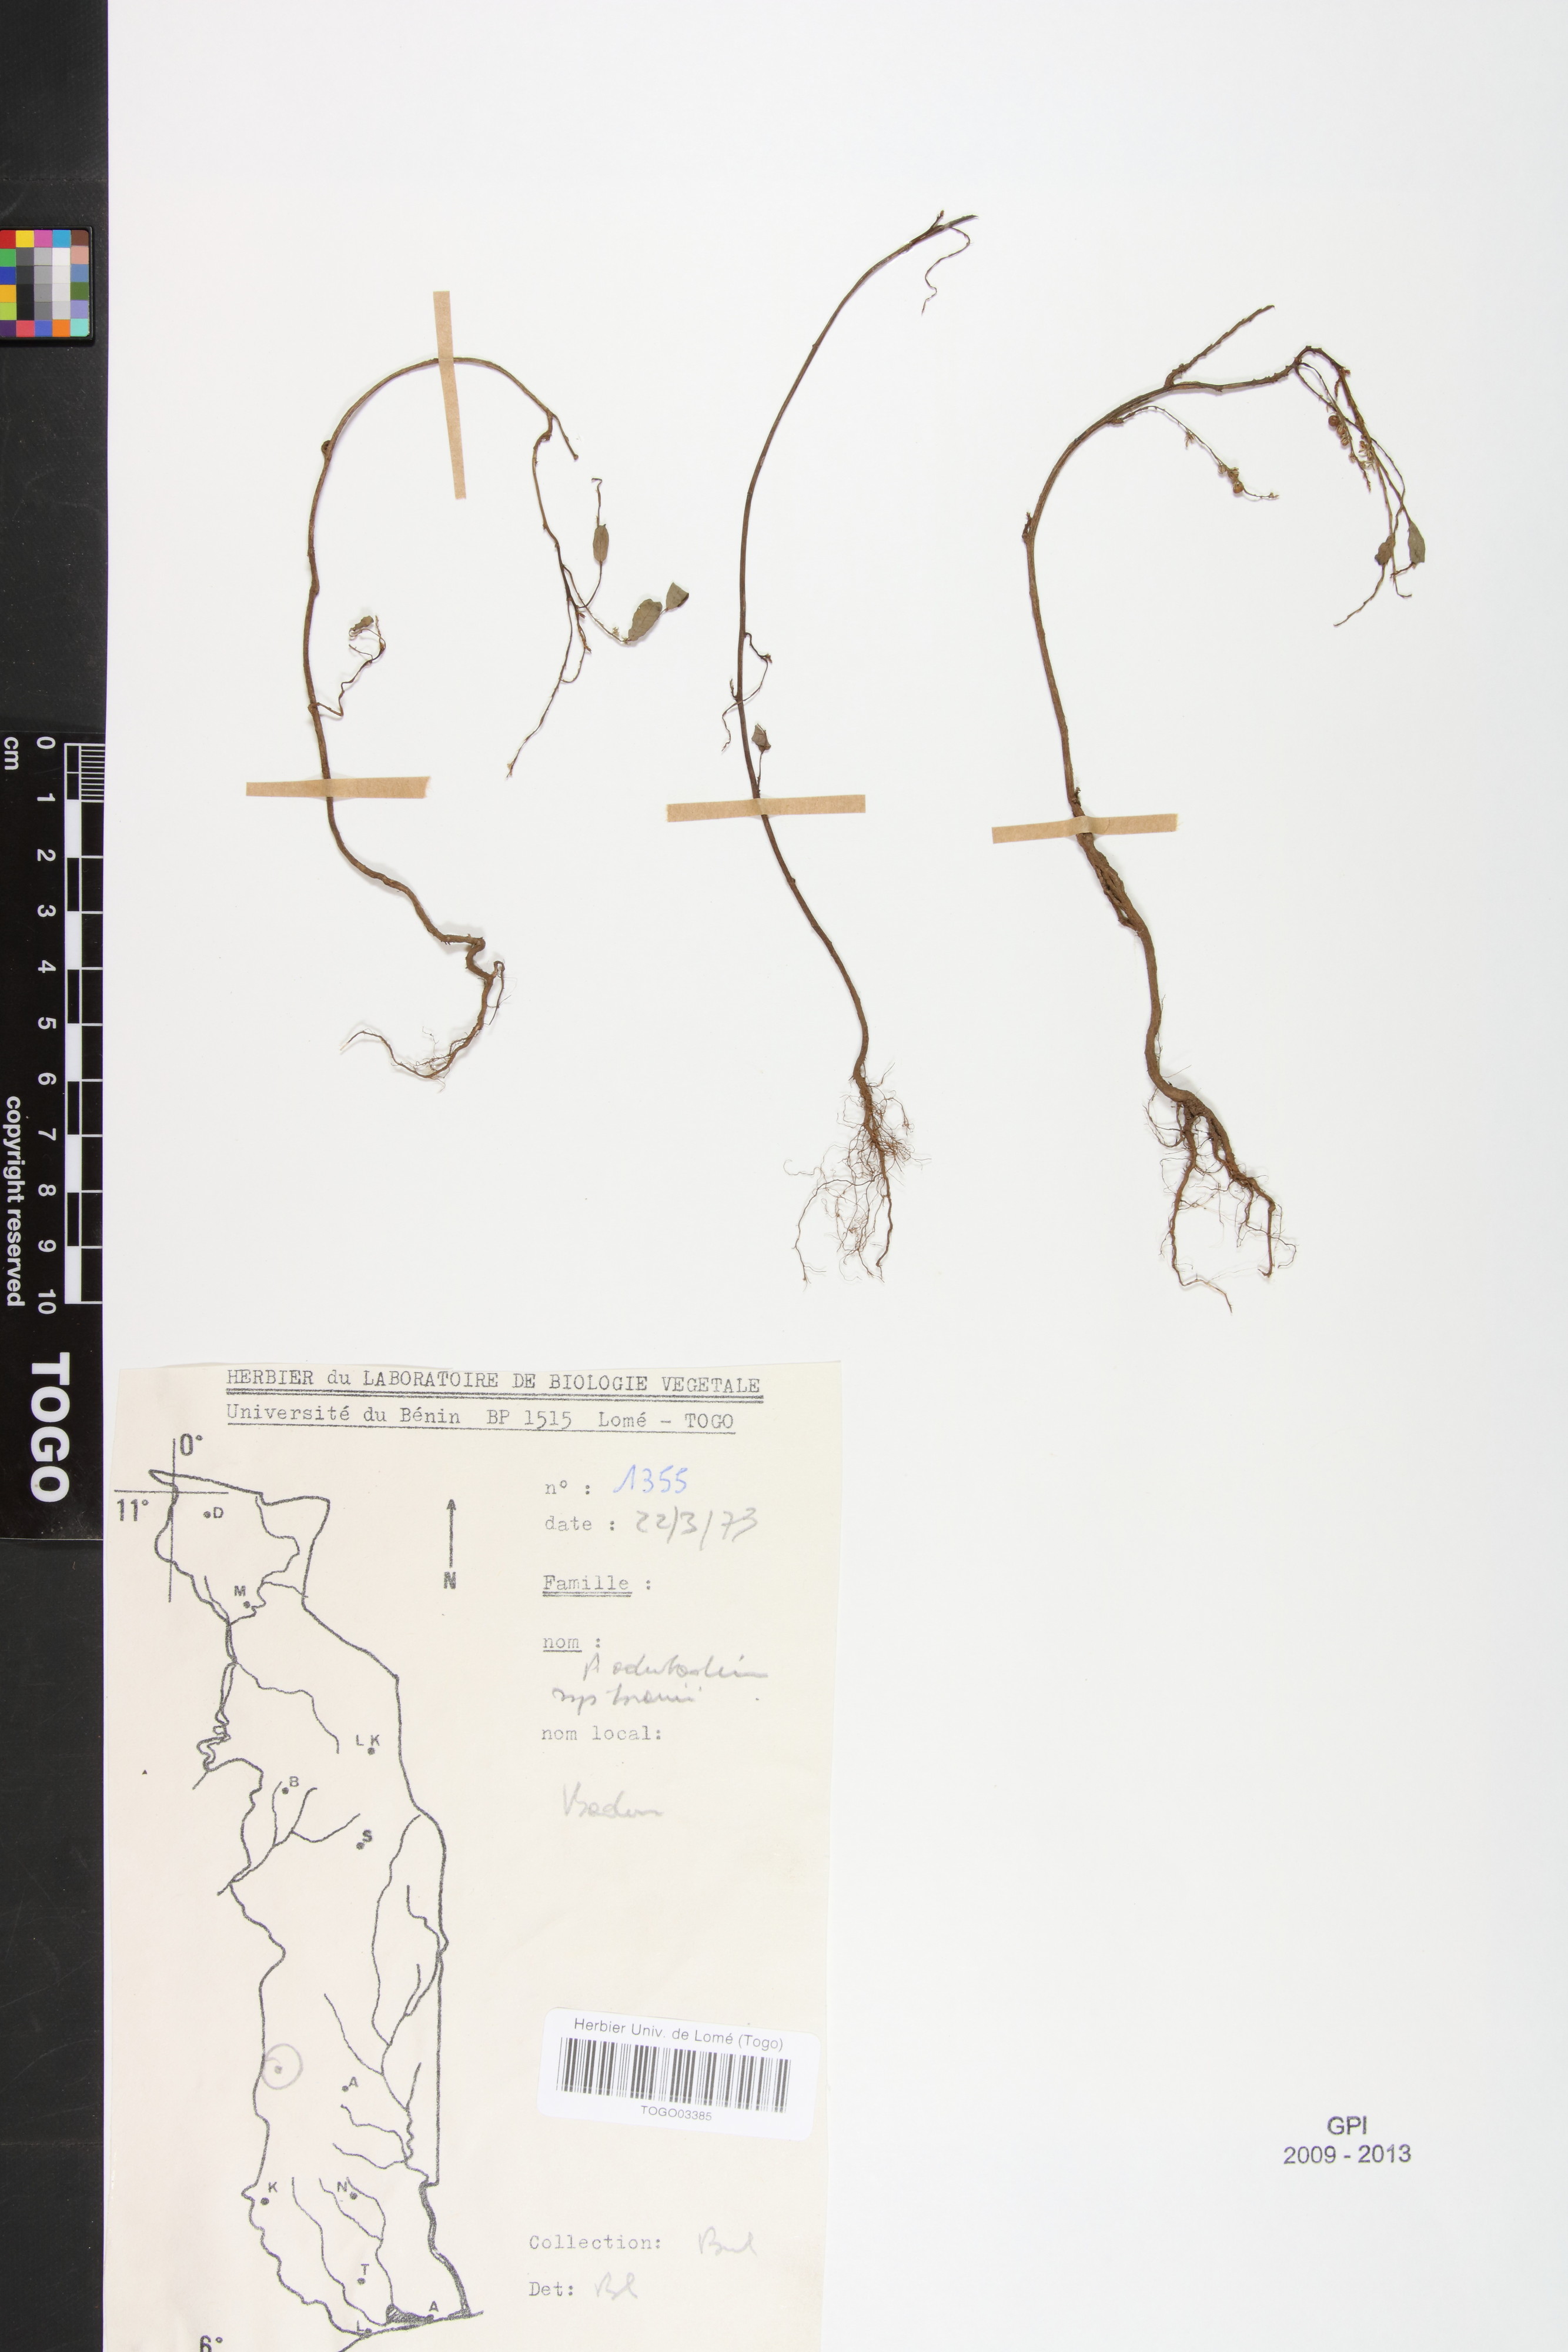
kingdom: Plantae
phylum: Tracheophyta
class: Magnoliopsida
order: Malpighiales
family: Phyllanthaceae
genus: Phyllanthus
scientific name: Phyllanthus odontadenius
